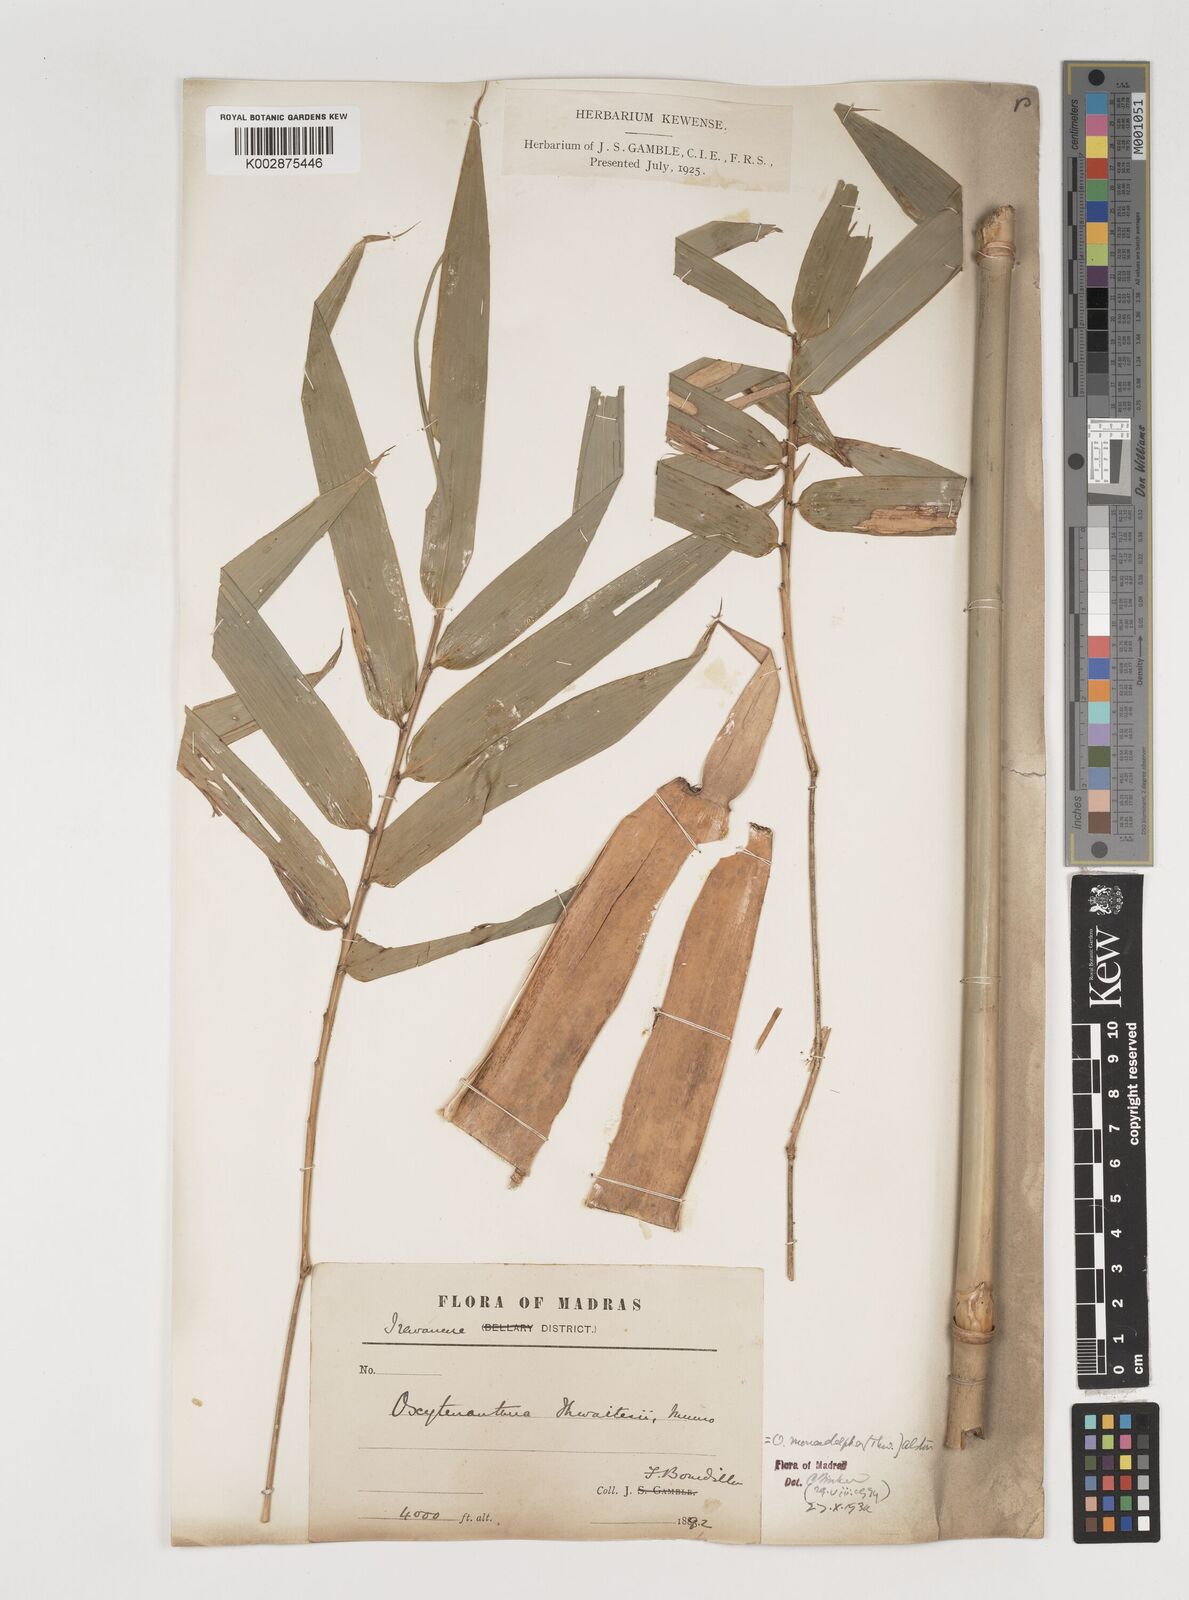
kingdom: Plantae
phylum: Tracheophyta
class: Liliopsida
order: Poales
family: Poaceae
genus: Pseudoxytenanthera
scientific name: Pseudoxytenanthera monadelpha
